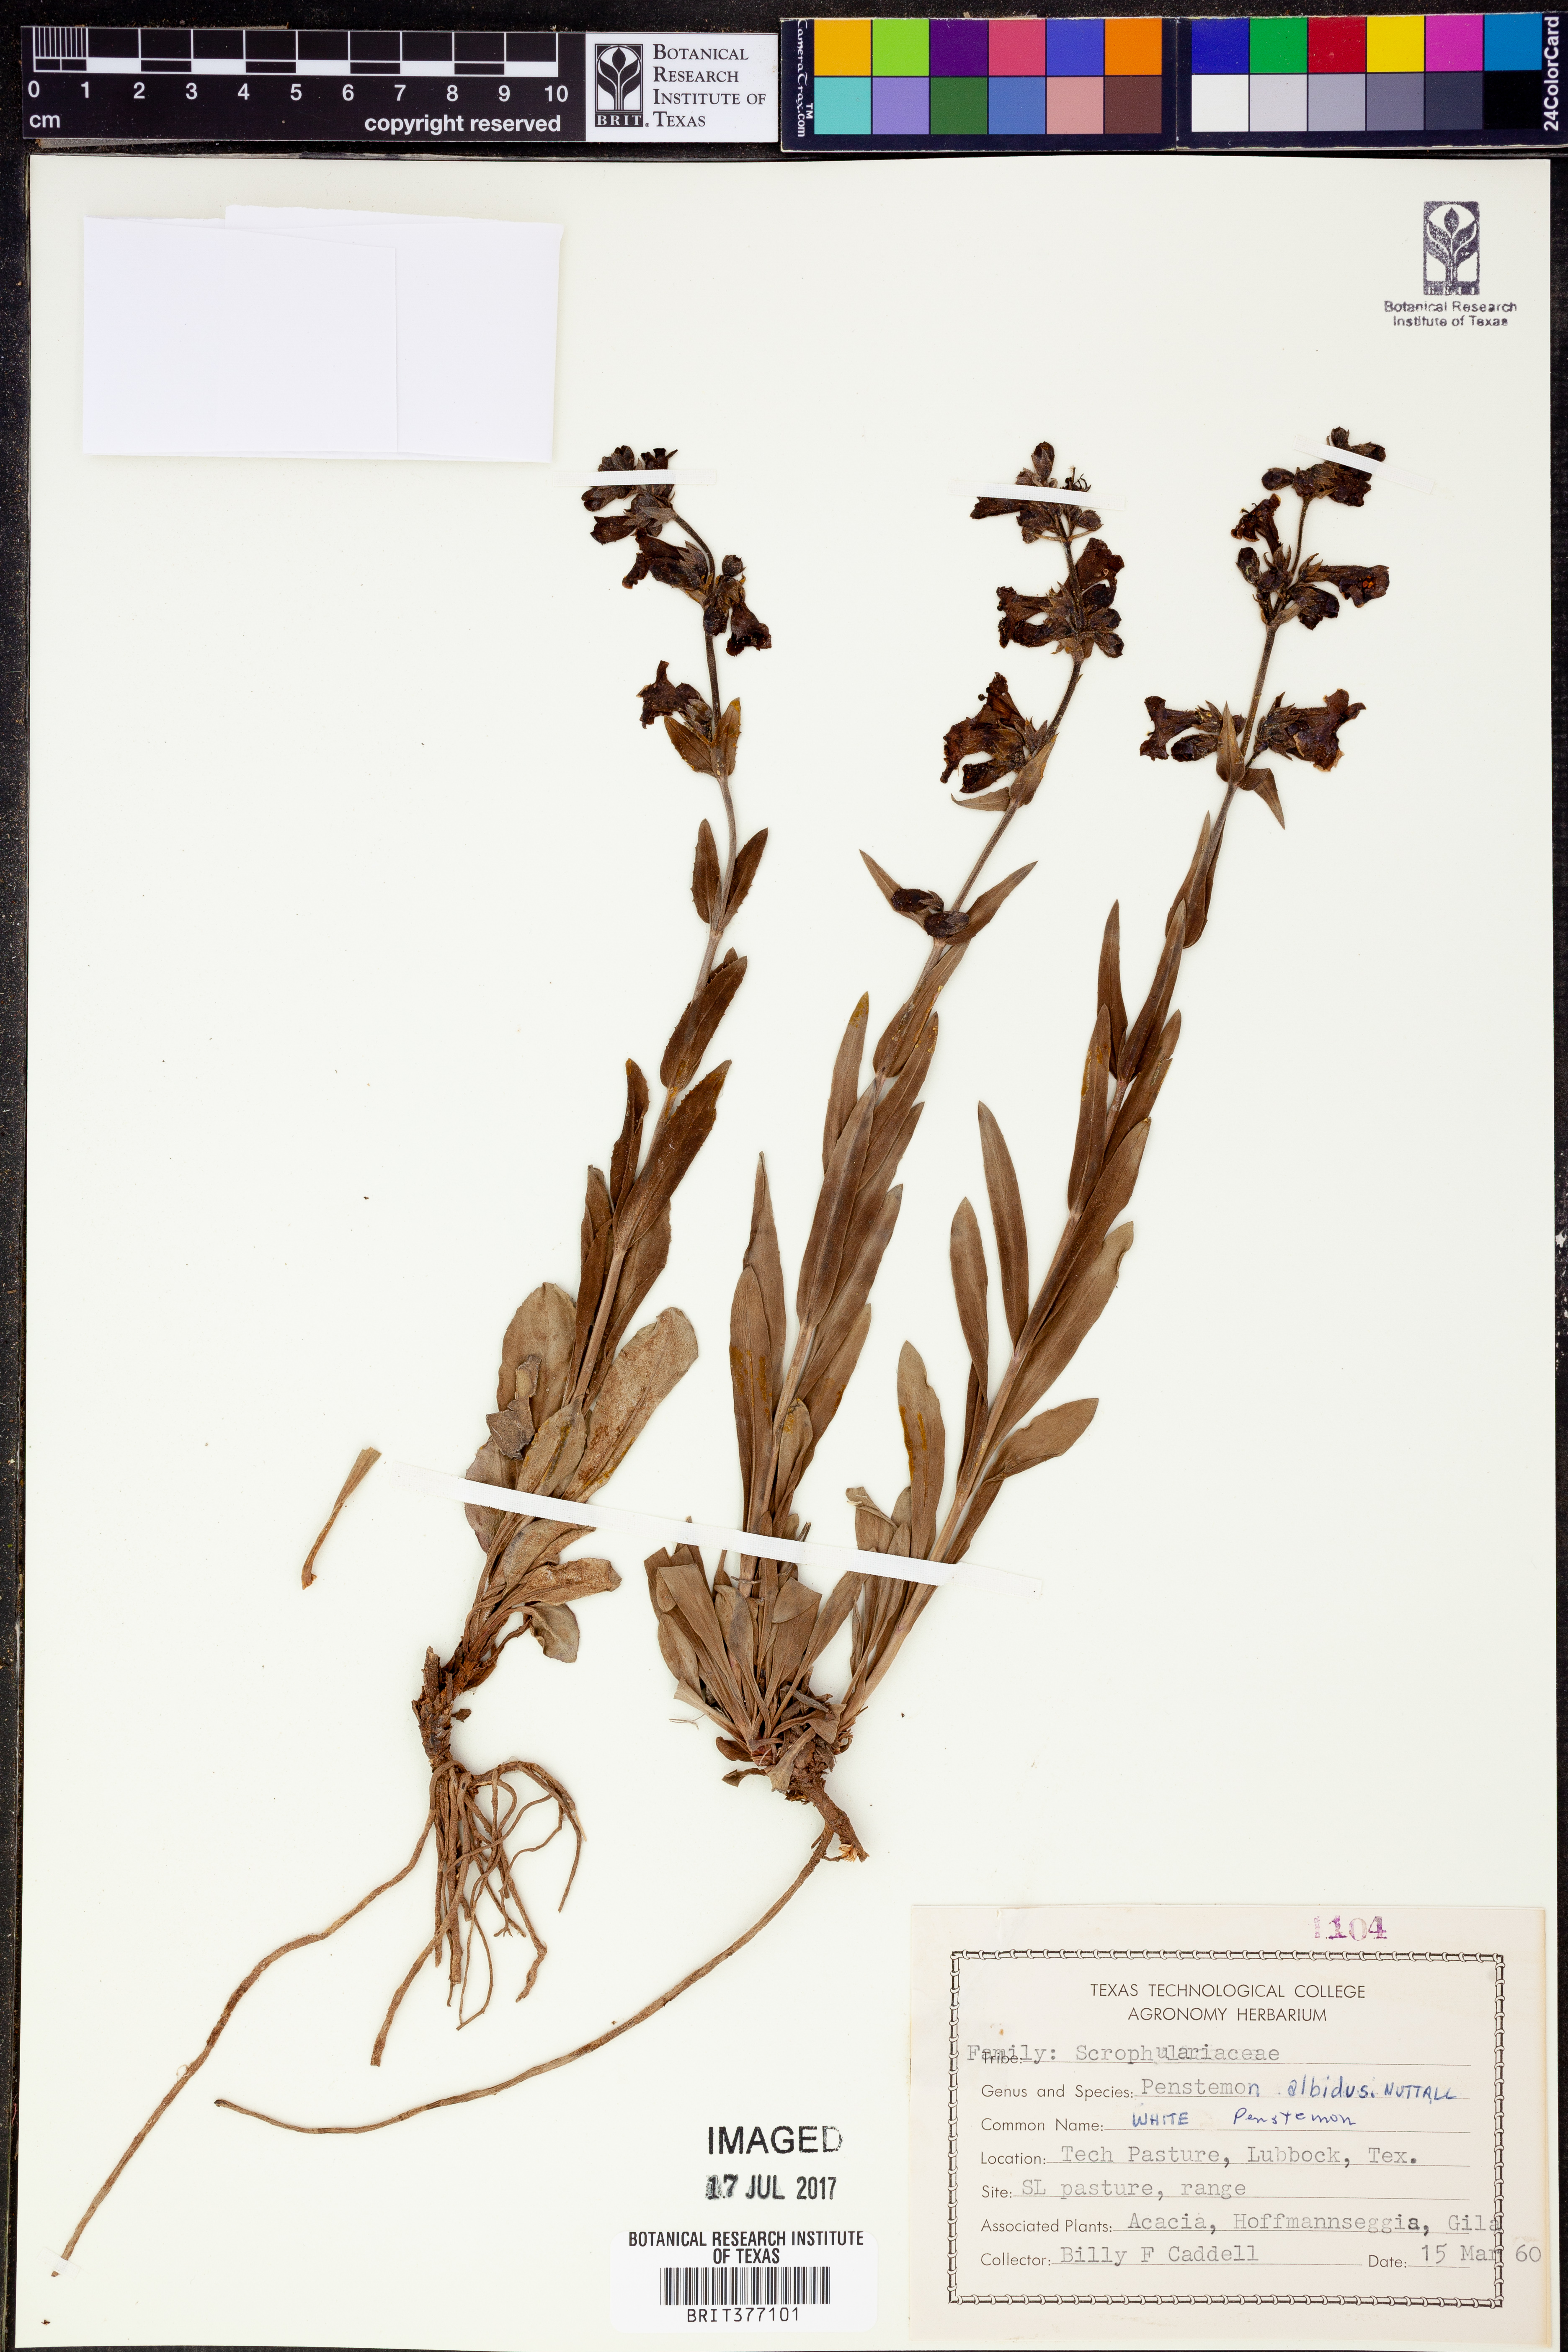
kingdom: Plantae
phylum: Tracheophyta
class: Magnoliopsida
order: Lamiales
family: Plantaginaceae
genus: Penstemon
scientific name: Penstemon albidus
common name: White beardtongue
